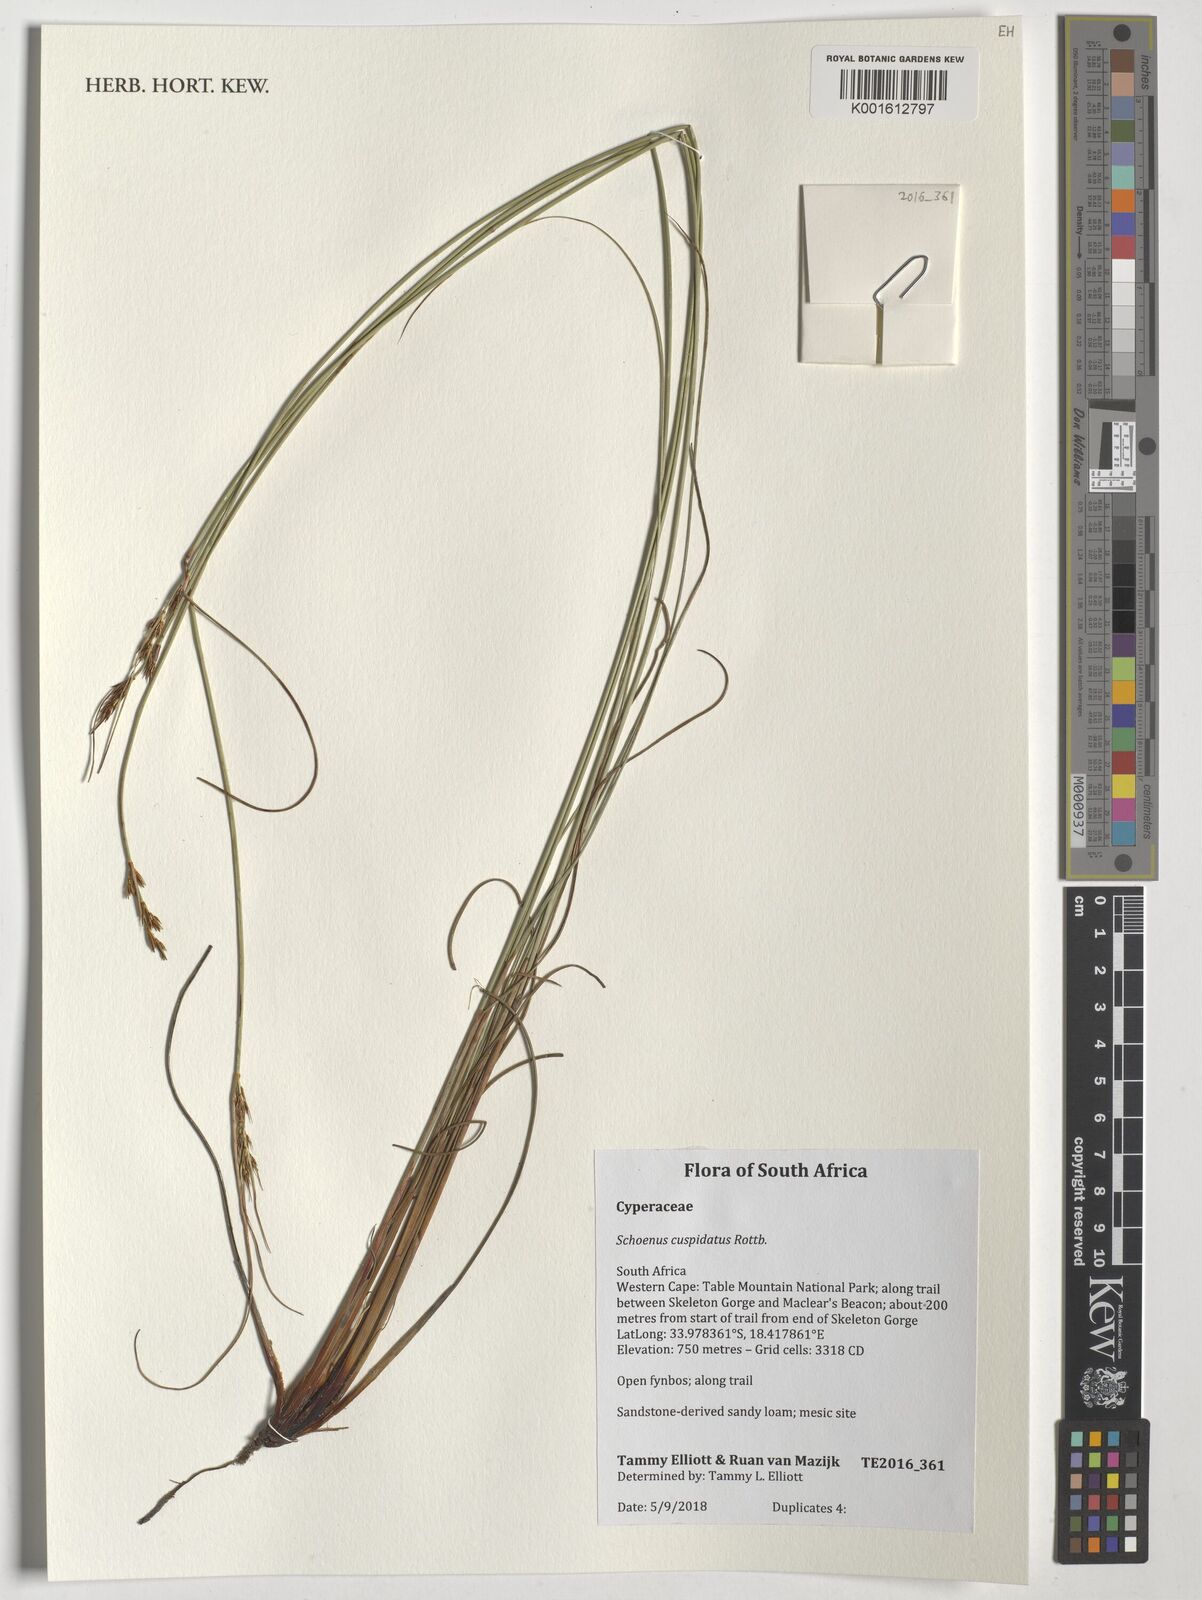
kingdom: Plantae
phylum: Tracheophyta
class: Liliopsida
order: Poales
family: Cyperaceae
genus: Schoenus
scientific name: Schoenus cuspidatus
